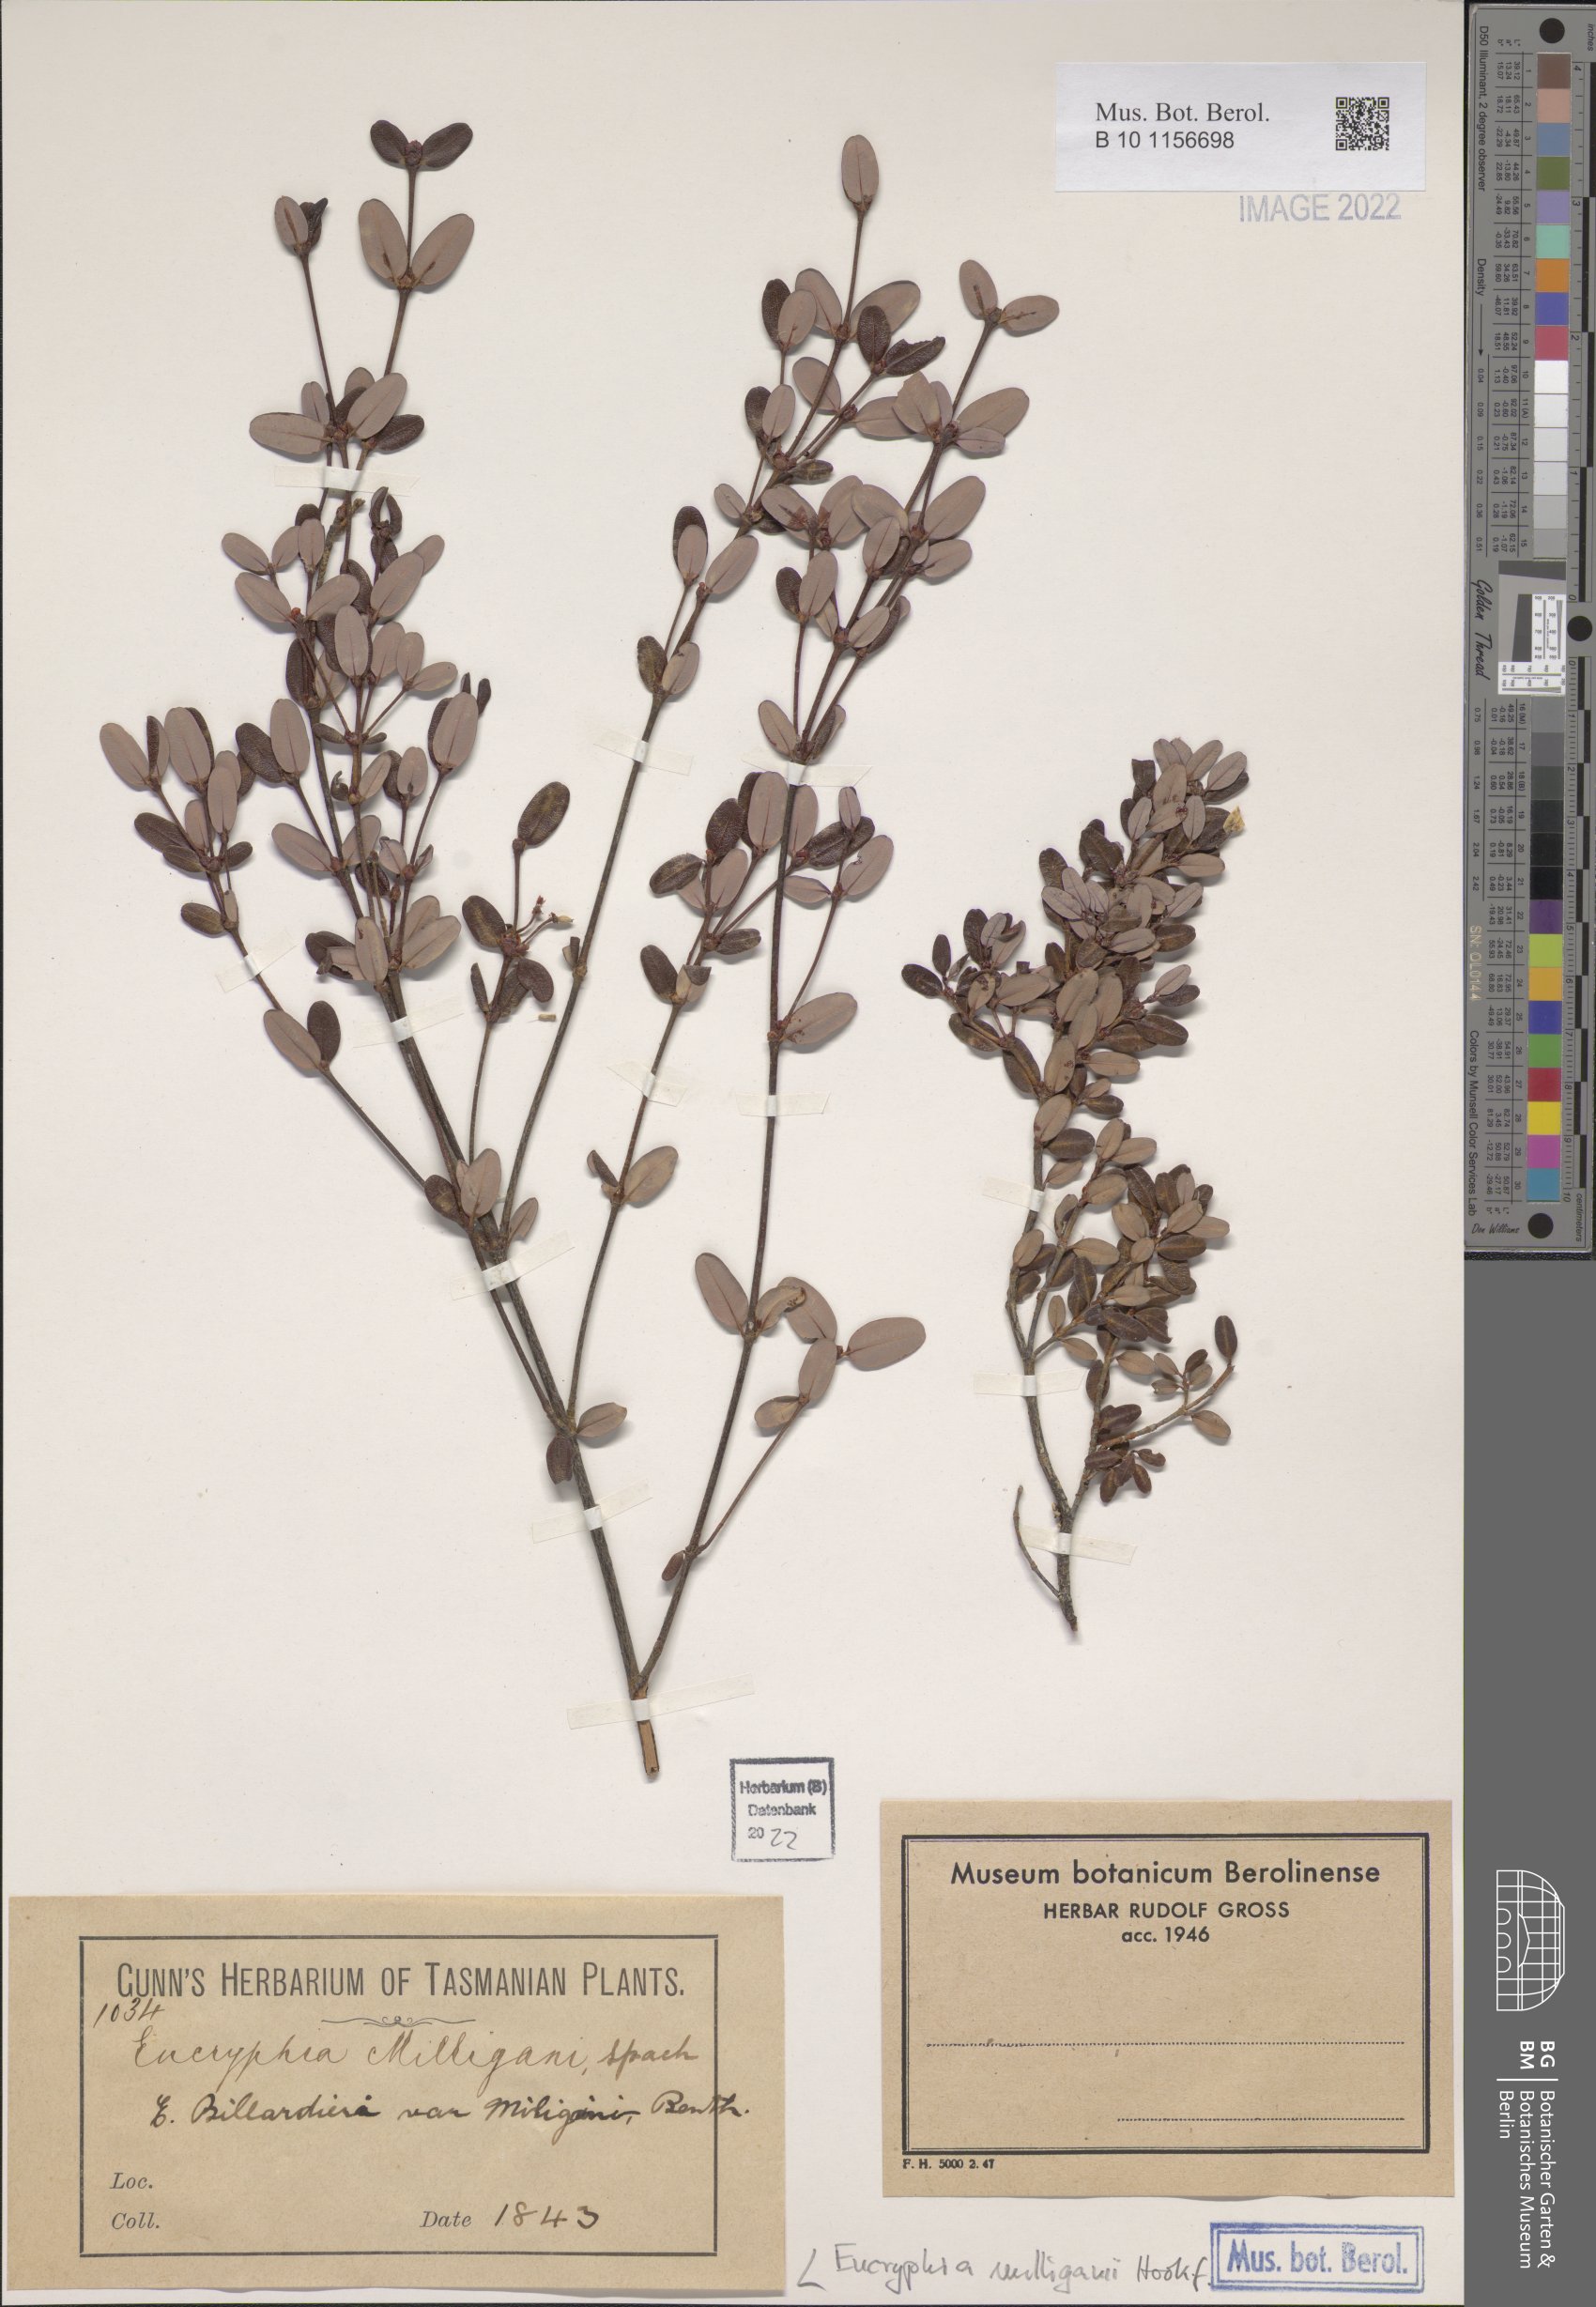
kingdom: Plantae
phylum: Tracheophyta
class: Magnoliopsida
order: Oxalidales
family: Cunoniaceae
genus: Eucryphia
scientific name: Eucryphia milliganii
